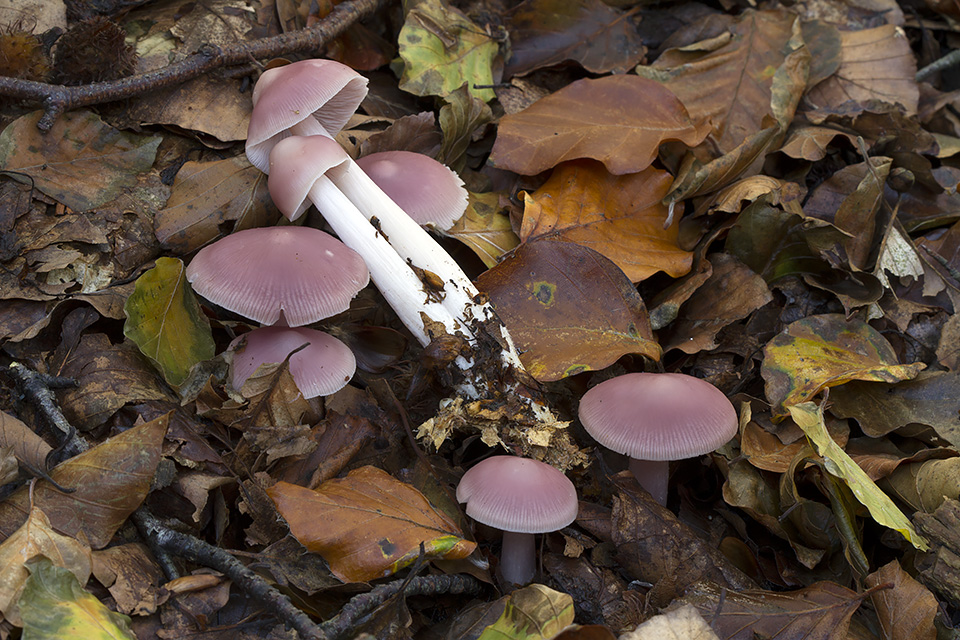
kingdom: Fungi
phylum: Basidiomycota
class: Agaricomycetes
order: Agaricales
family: Mycenaceae
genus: Mycena
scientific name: Mycena rosea
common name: rosa huesvamp
